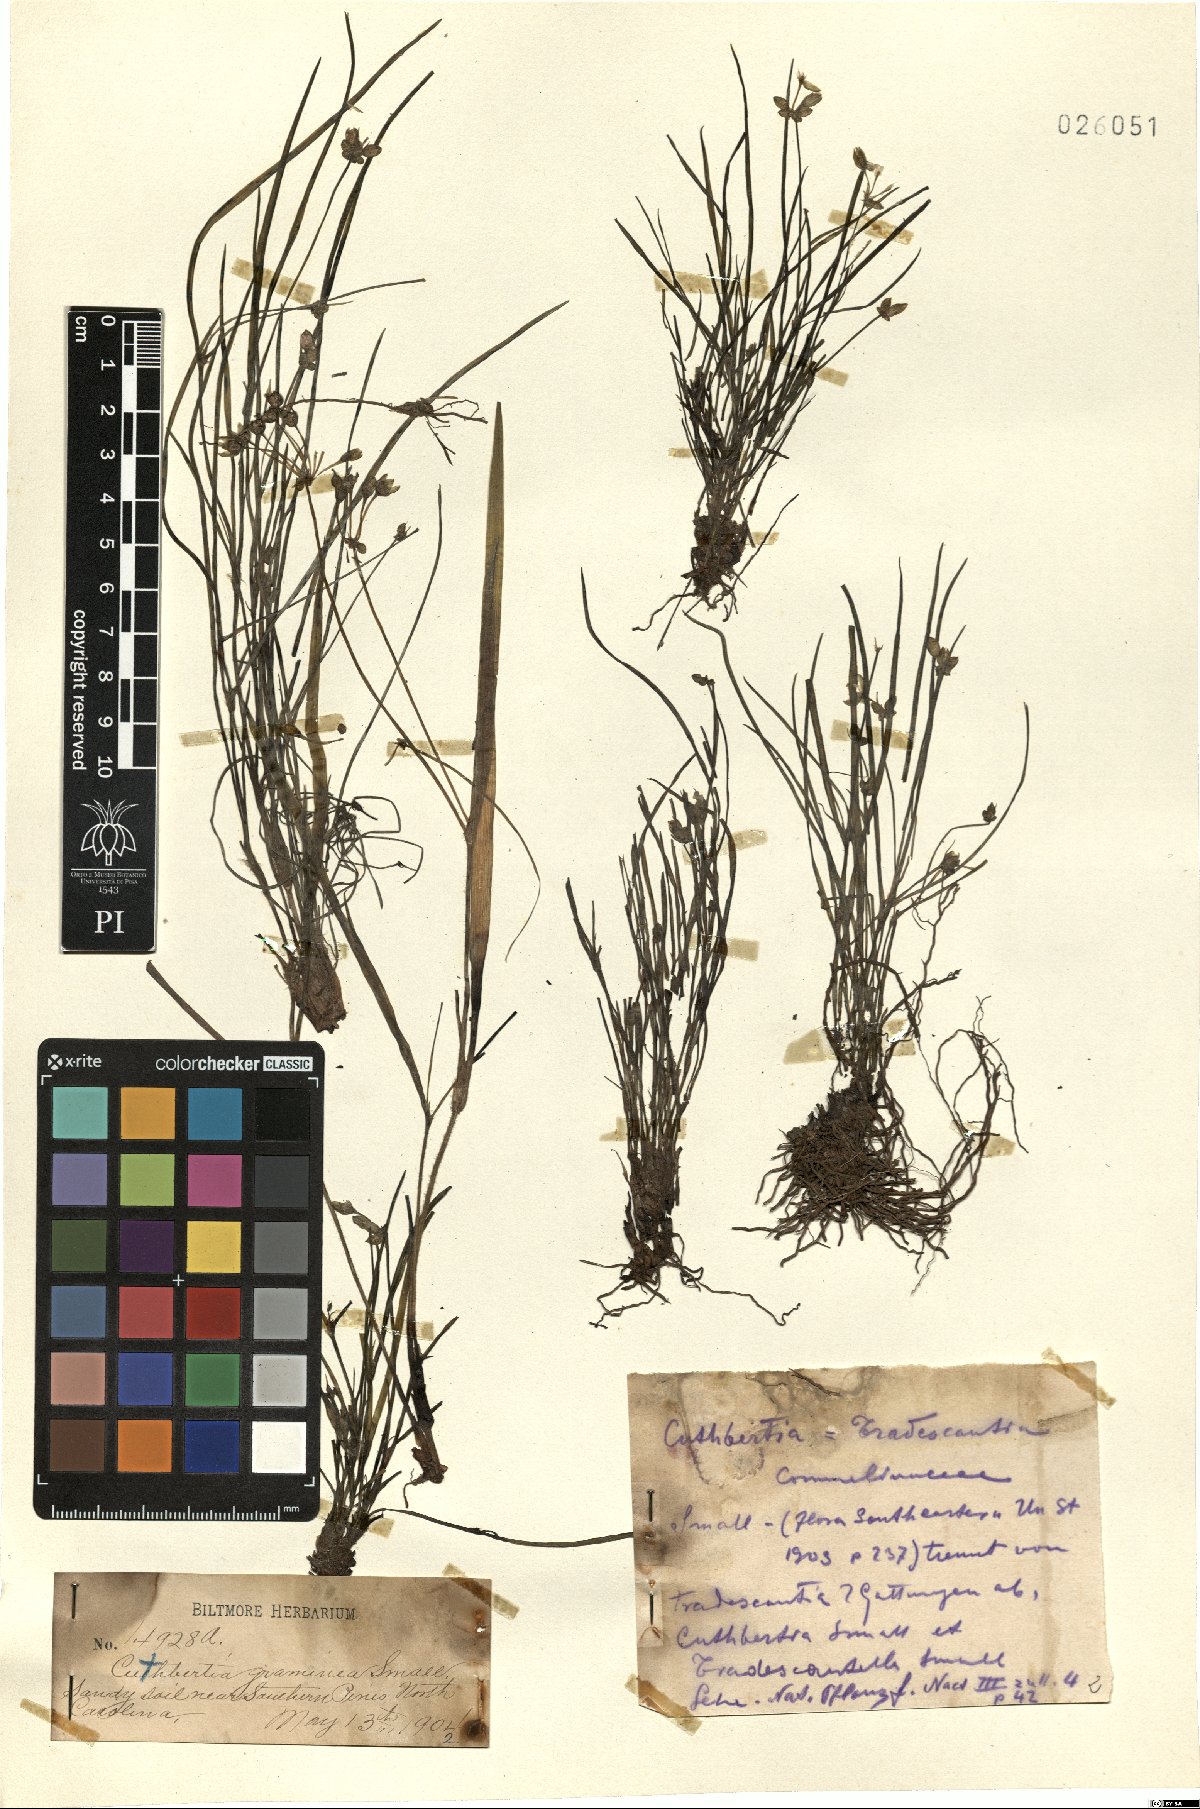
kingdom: Plantae
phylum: Tracheophyta
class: Liliopsida
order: Commelinales
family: Commelinaceae
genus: Callisia
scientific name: Callisia graminea
